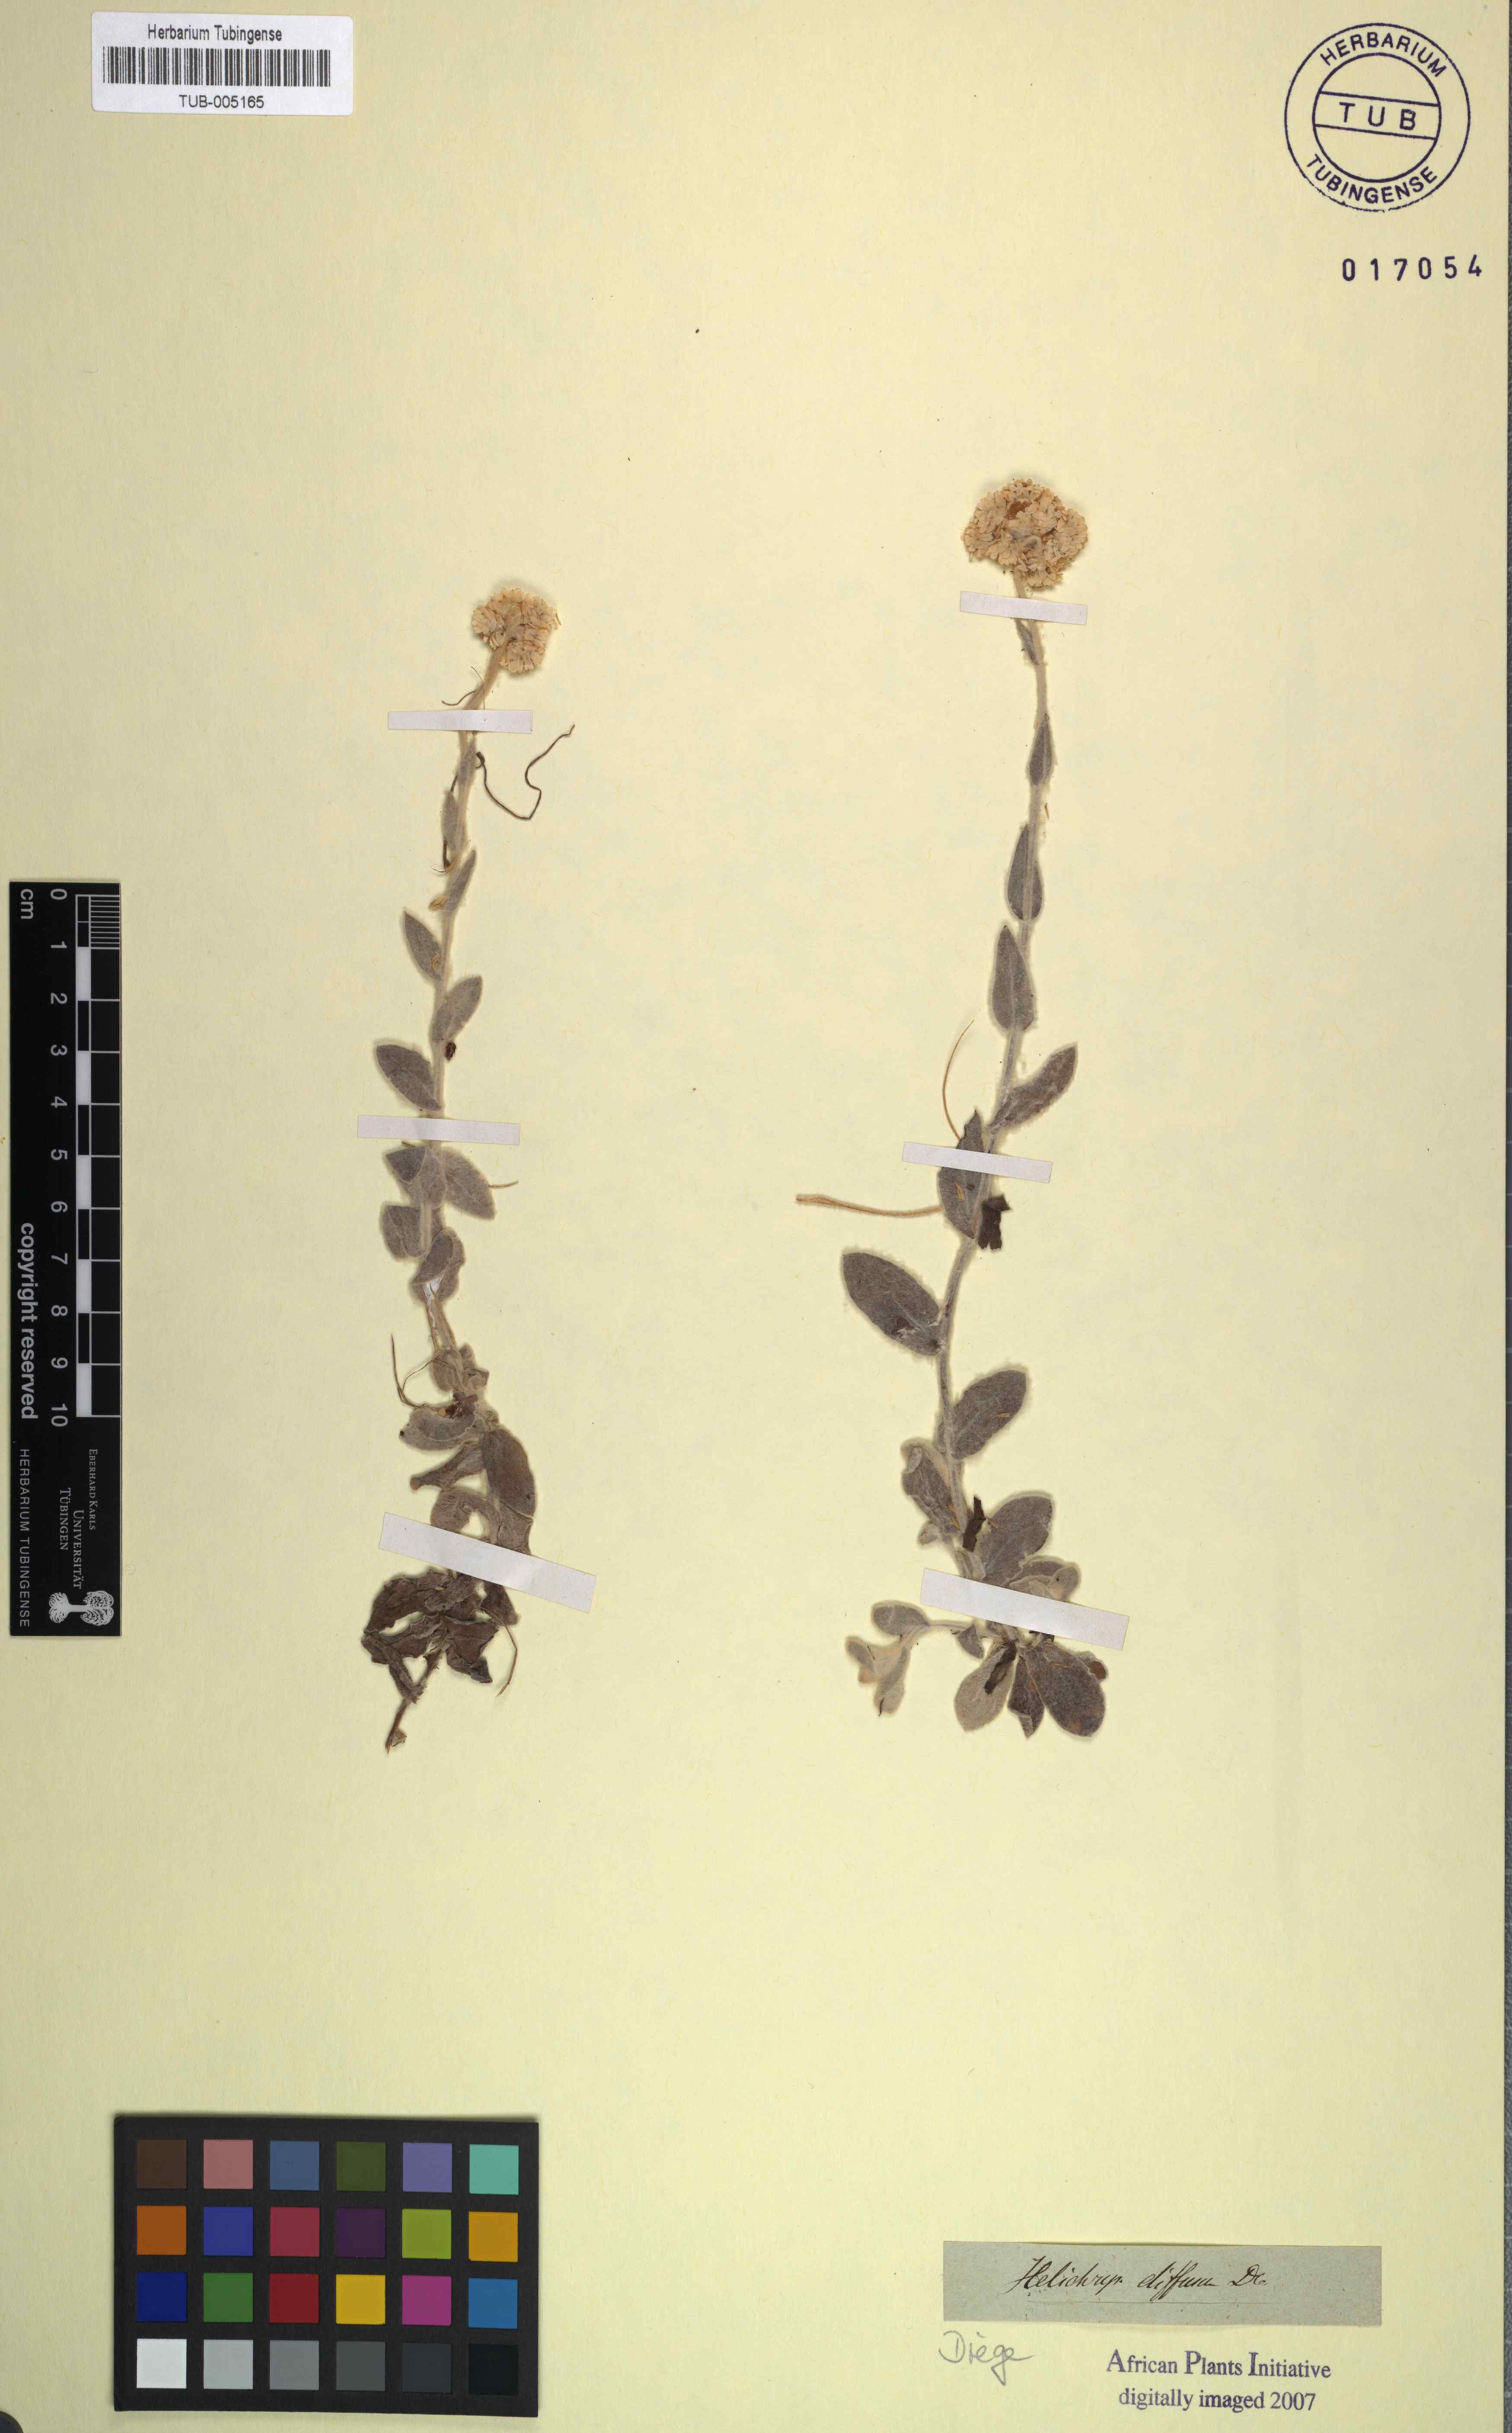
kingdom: Plantae
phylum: Tracheophyta
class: Magnoliopsida
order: Asterales
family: Asteraceae
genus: Helichrysum
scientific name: Helichrysum diffusum
